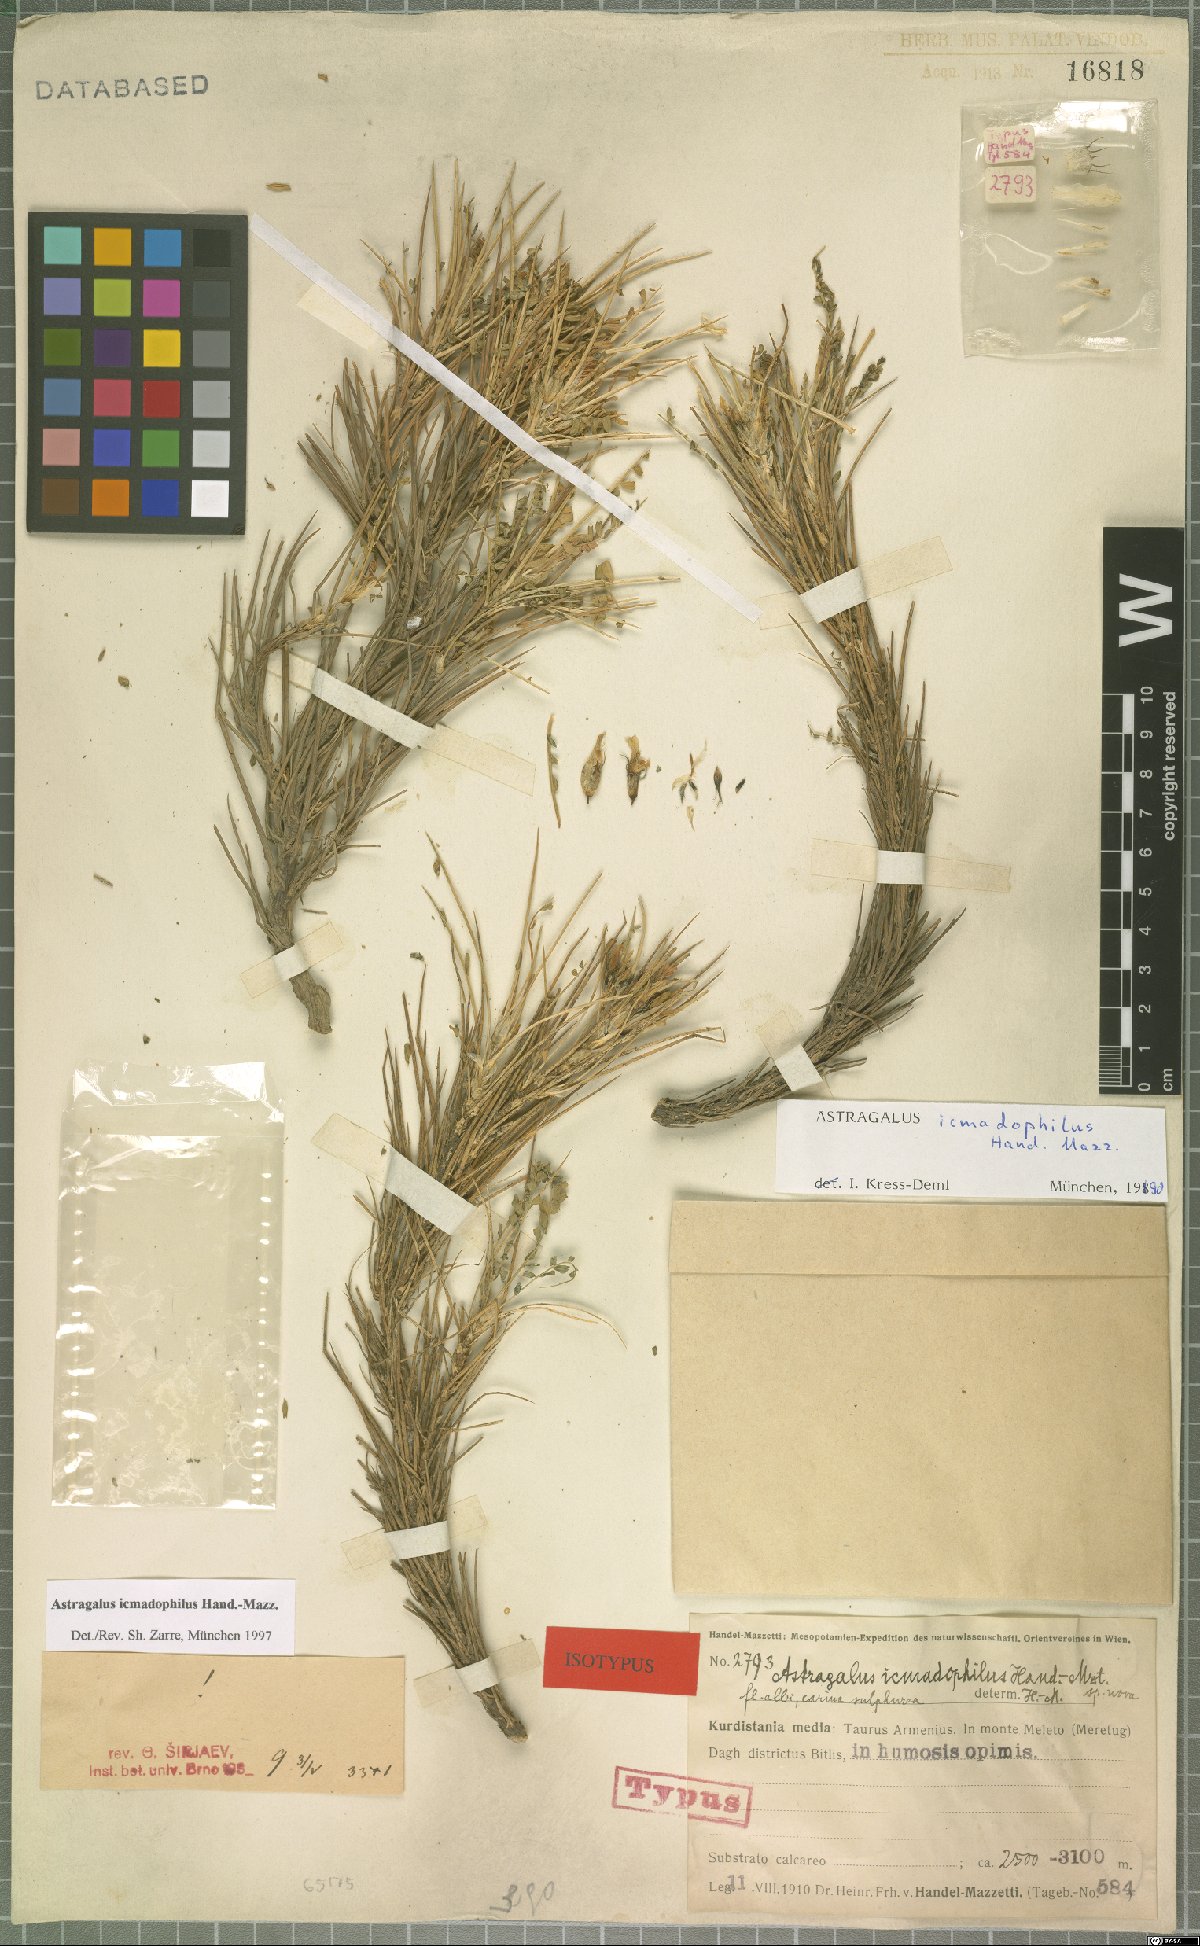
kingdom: Plantae
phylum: Tracheophyta
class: Magnoliopsida
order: Fabales
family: Fabaceae
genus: Astragalus
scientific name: Astragalus icmadophilus
